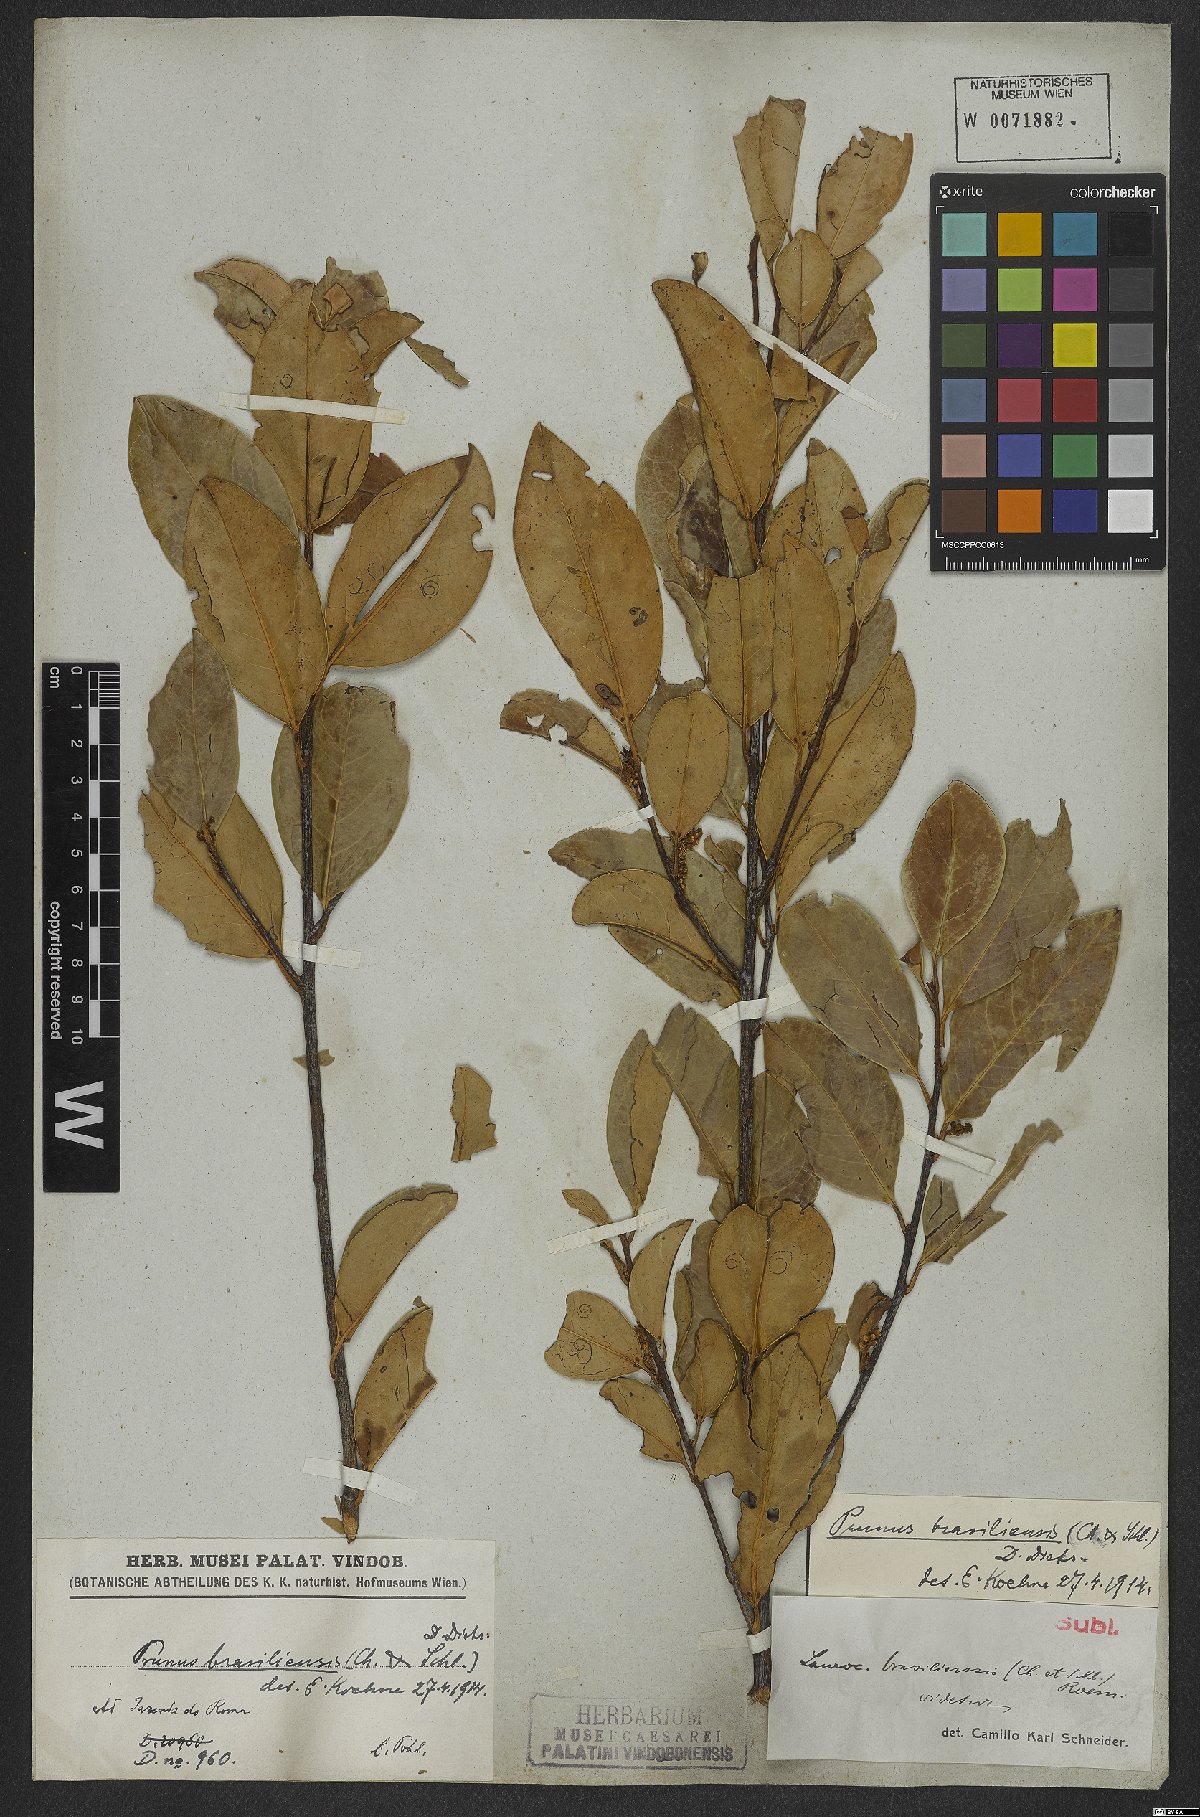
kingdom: Plantae
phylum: Tracheophyta
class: Magnoliopsida
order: Rosales
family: Rosaceae
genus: Prunus
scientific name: Prunus brasiliensis
